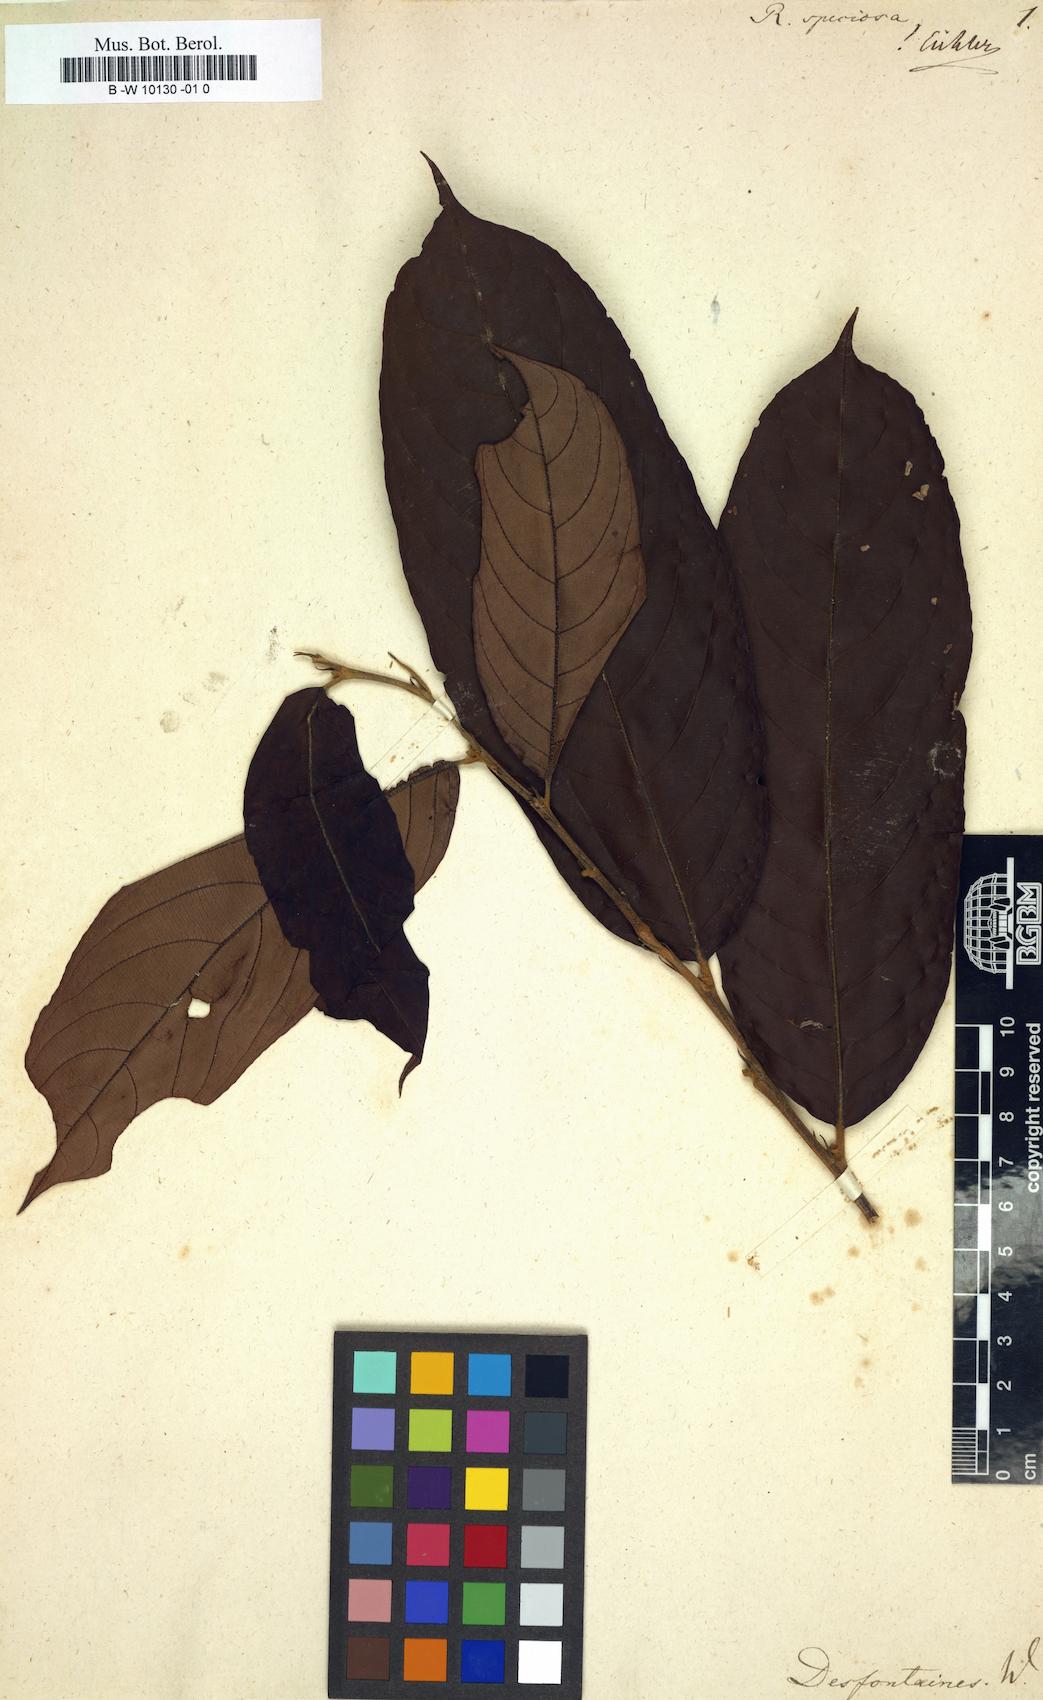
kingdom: Plantae
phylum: Tracheophyta
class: Magnoliopsida
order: Malpighiales
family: Salicaceae
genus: Ryania
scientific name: Ryania speciosa
